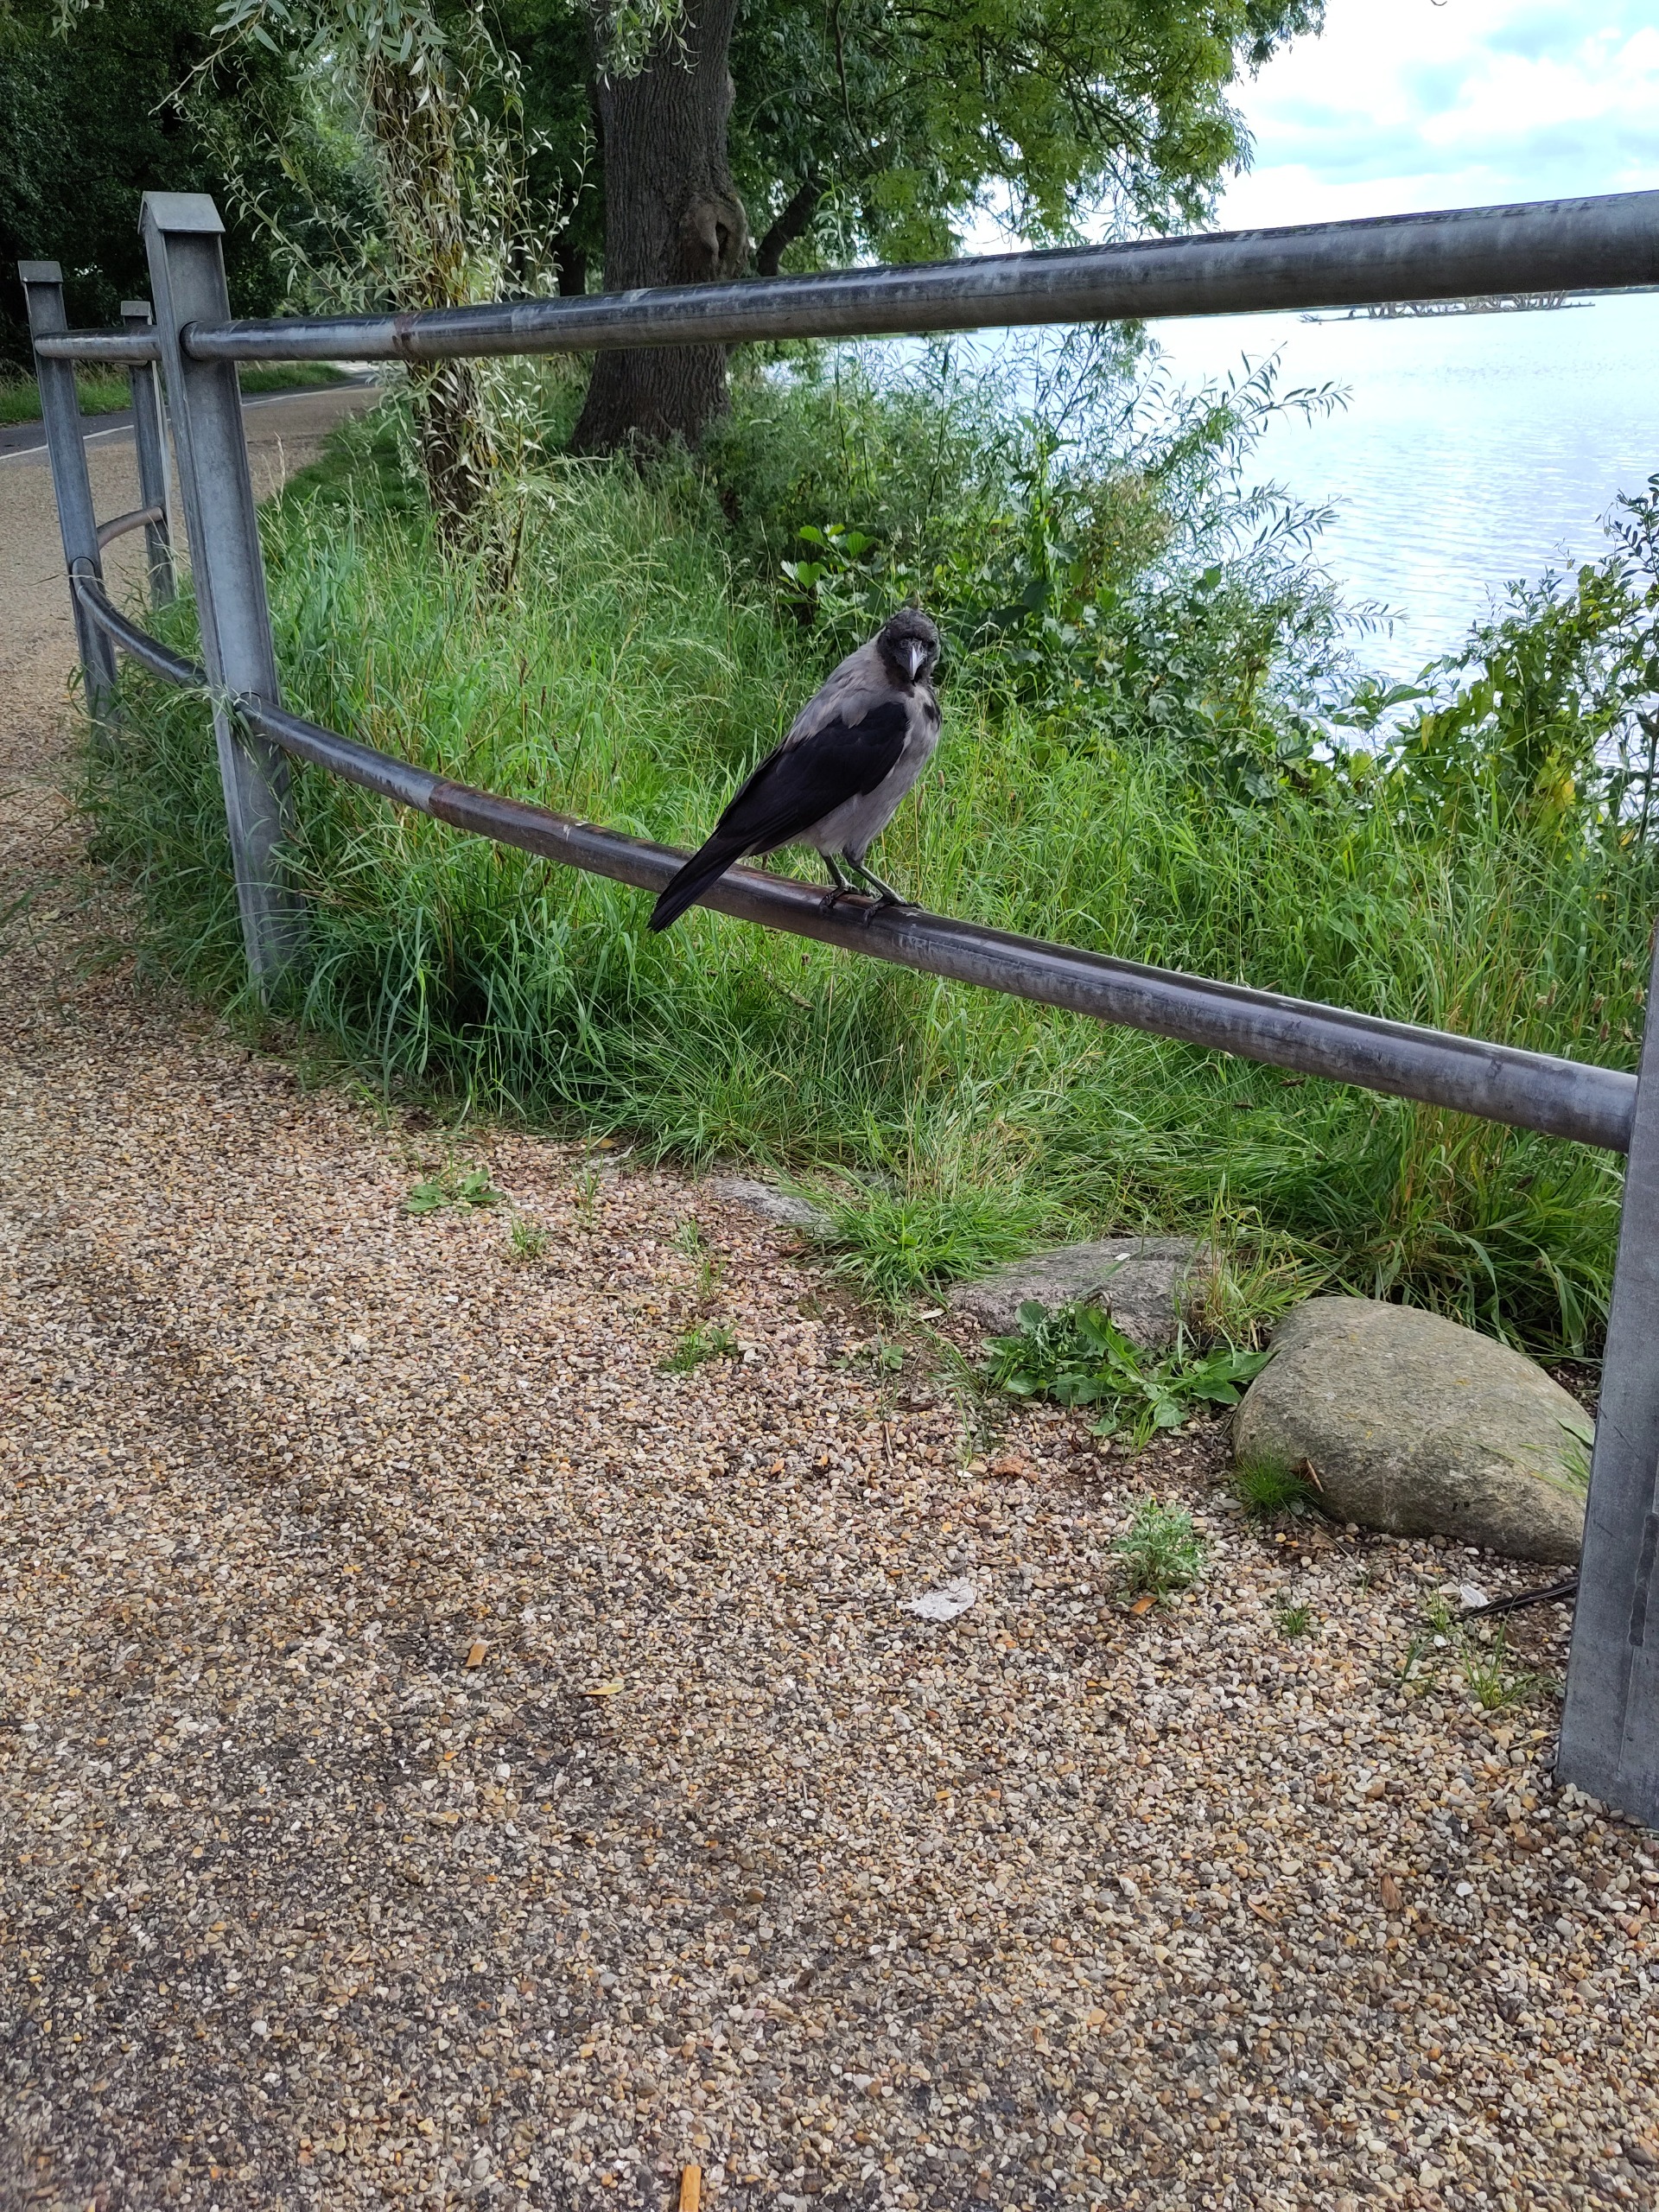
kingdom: Animalia
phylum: Chordata
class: Aves
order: Passeriformes
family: Corvidae
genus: Corvus
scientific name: Corvus cornix
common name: Gråkrage
